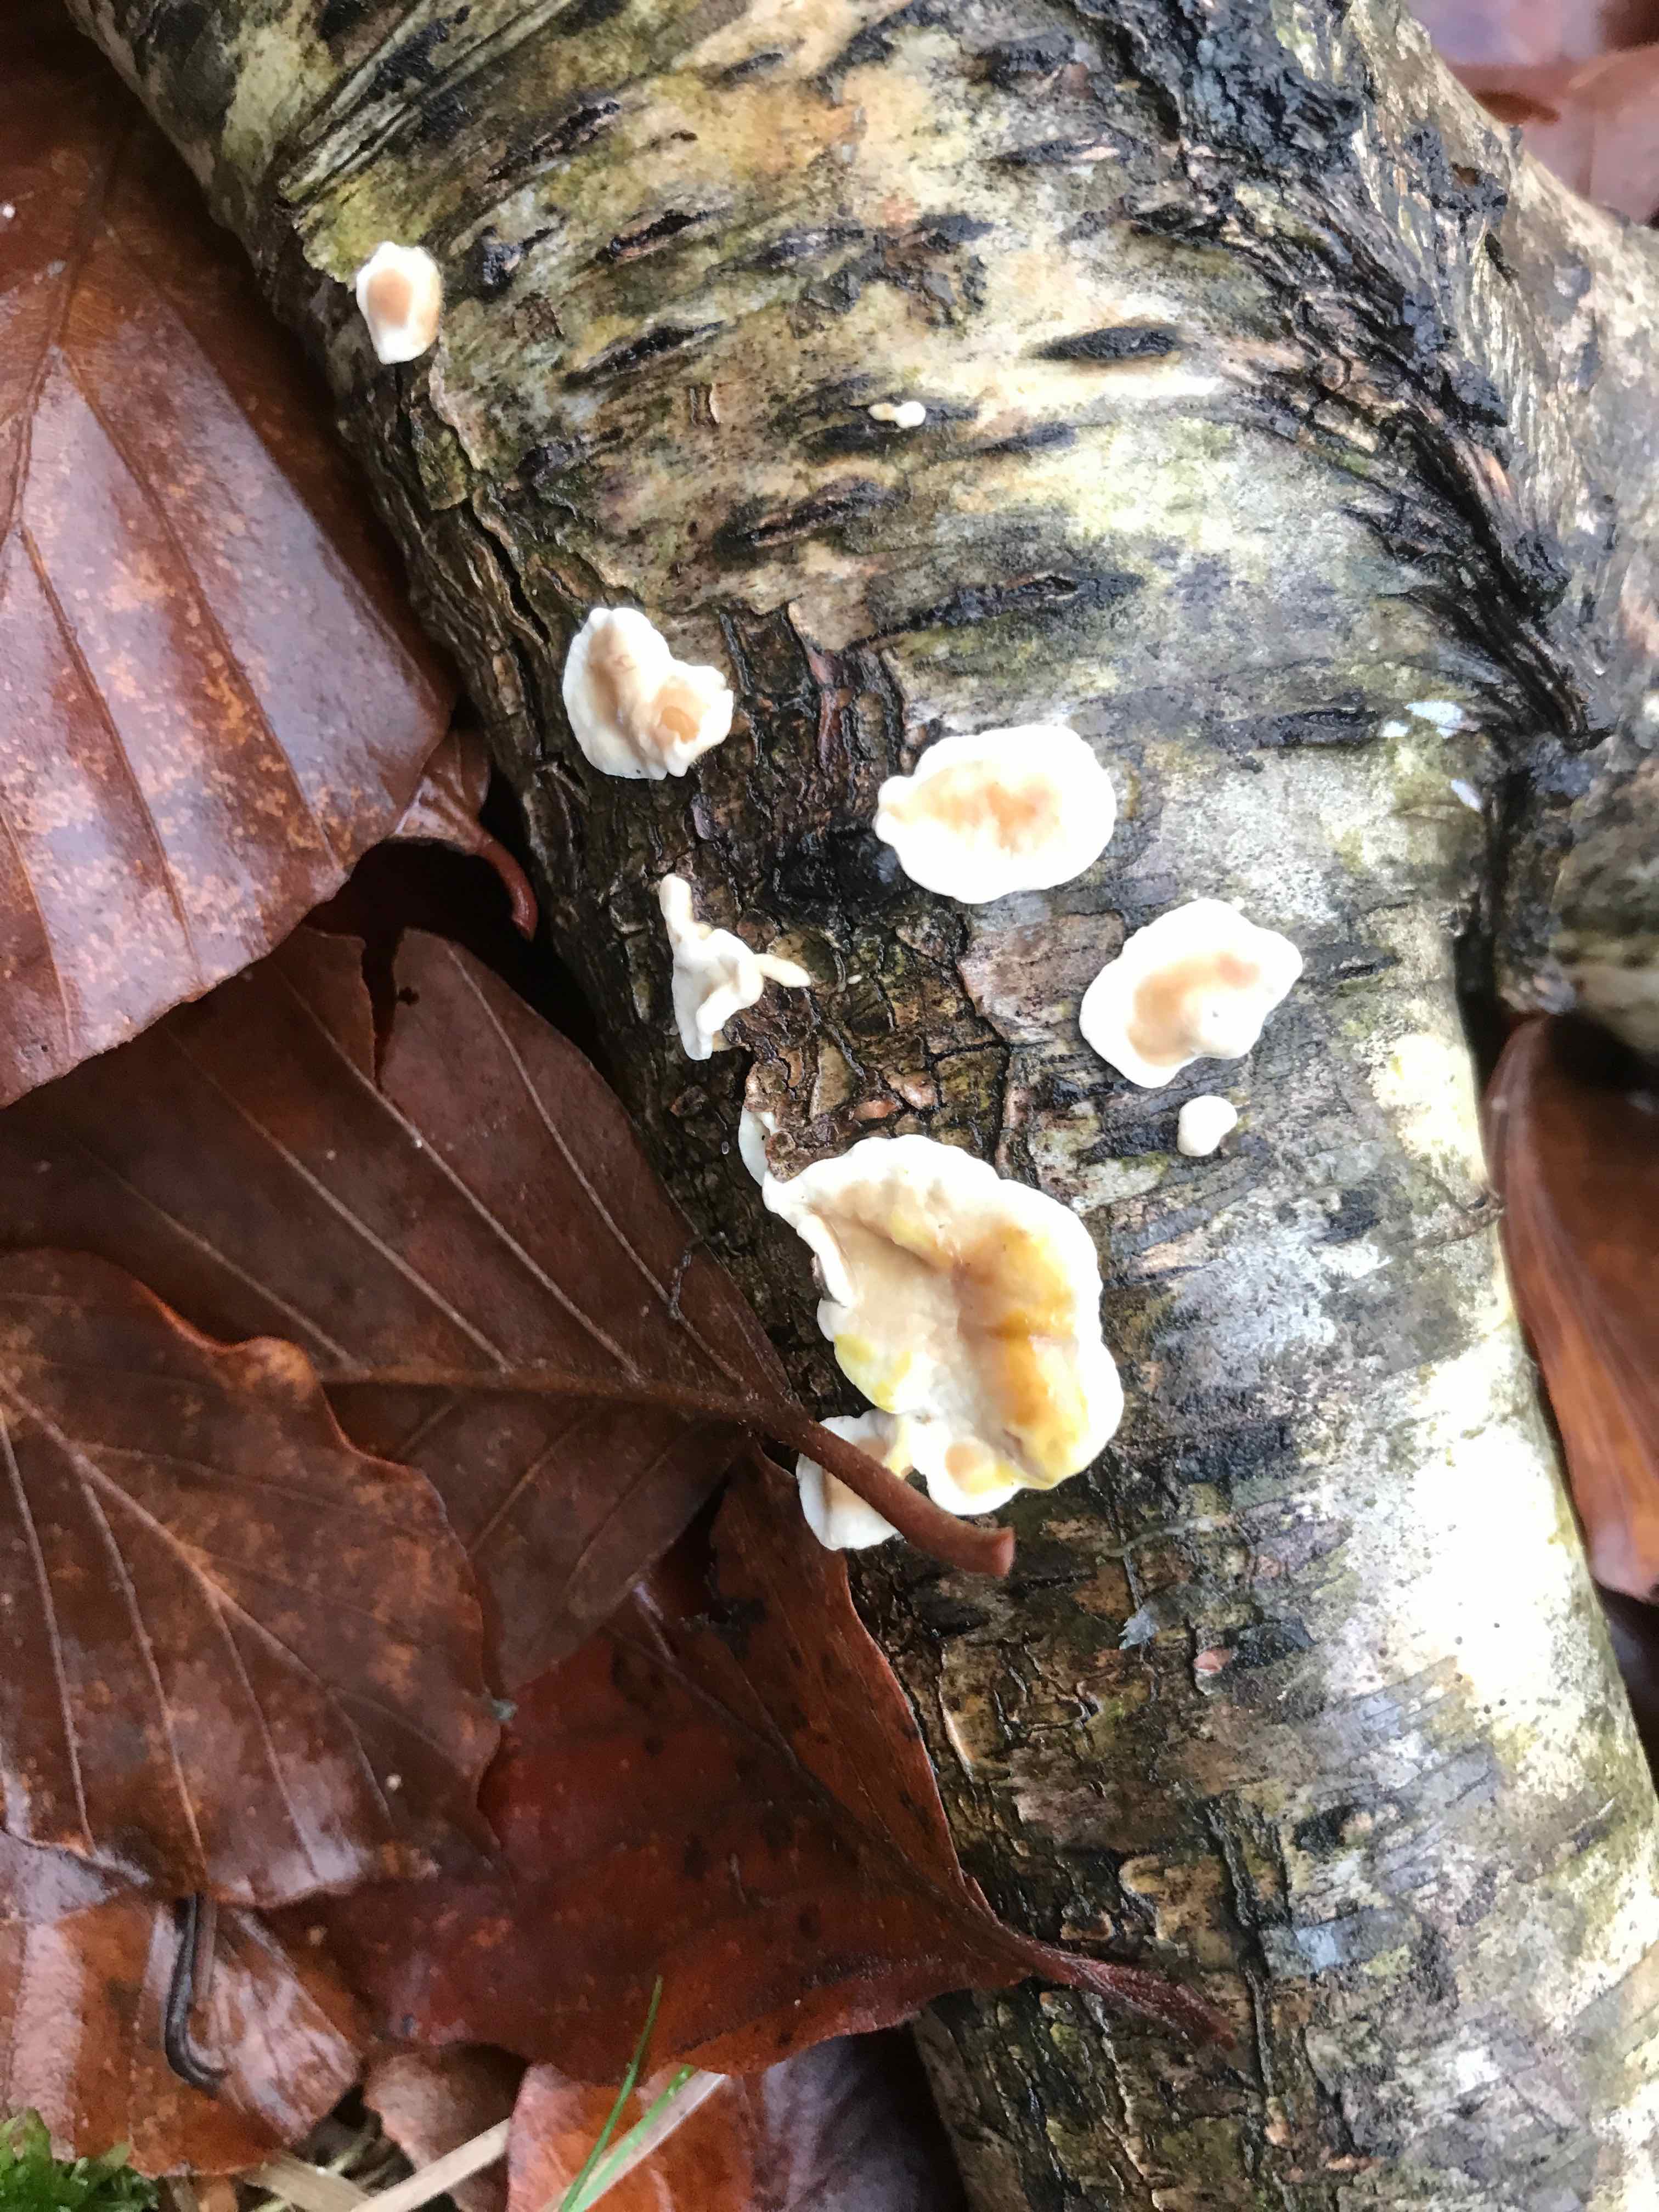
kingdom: Fungi
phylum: Basidiomycota
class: Agaricomycetes
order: Russulales
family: Stereaceae
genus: Stereum
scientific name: Stereum hirsutum
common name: håret lædersvamp
